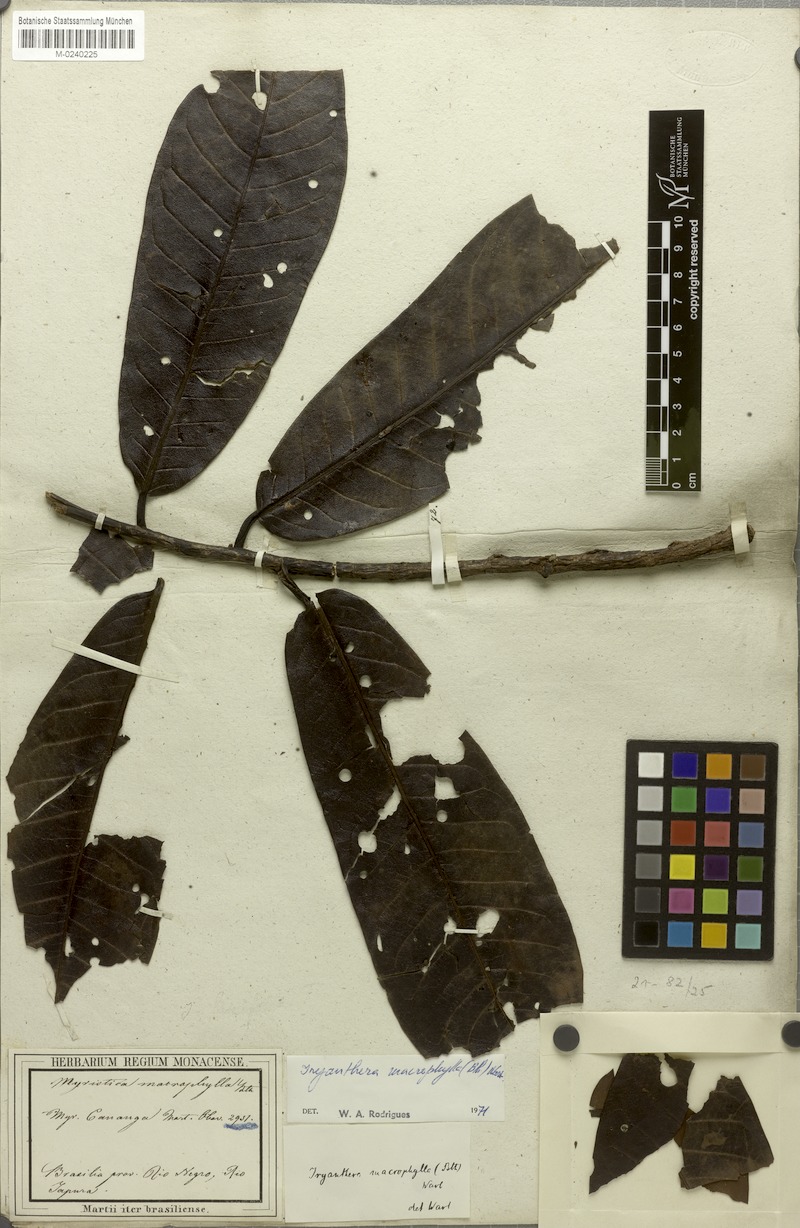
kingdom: Plantae
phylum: Tracheophyta
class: Magnoliopsida
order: Magnoliales
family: Myristicaceae
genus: Iryanthera
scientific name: Iryanthera macrophylla
